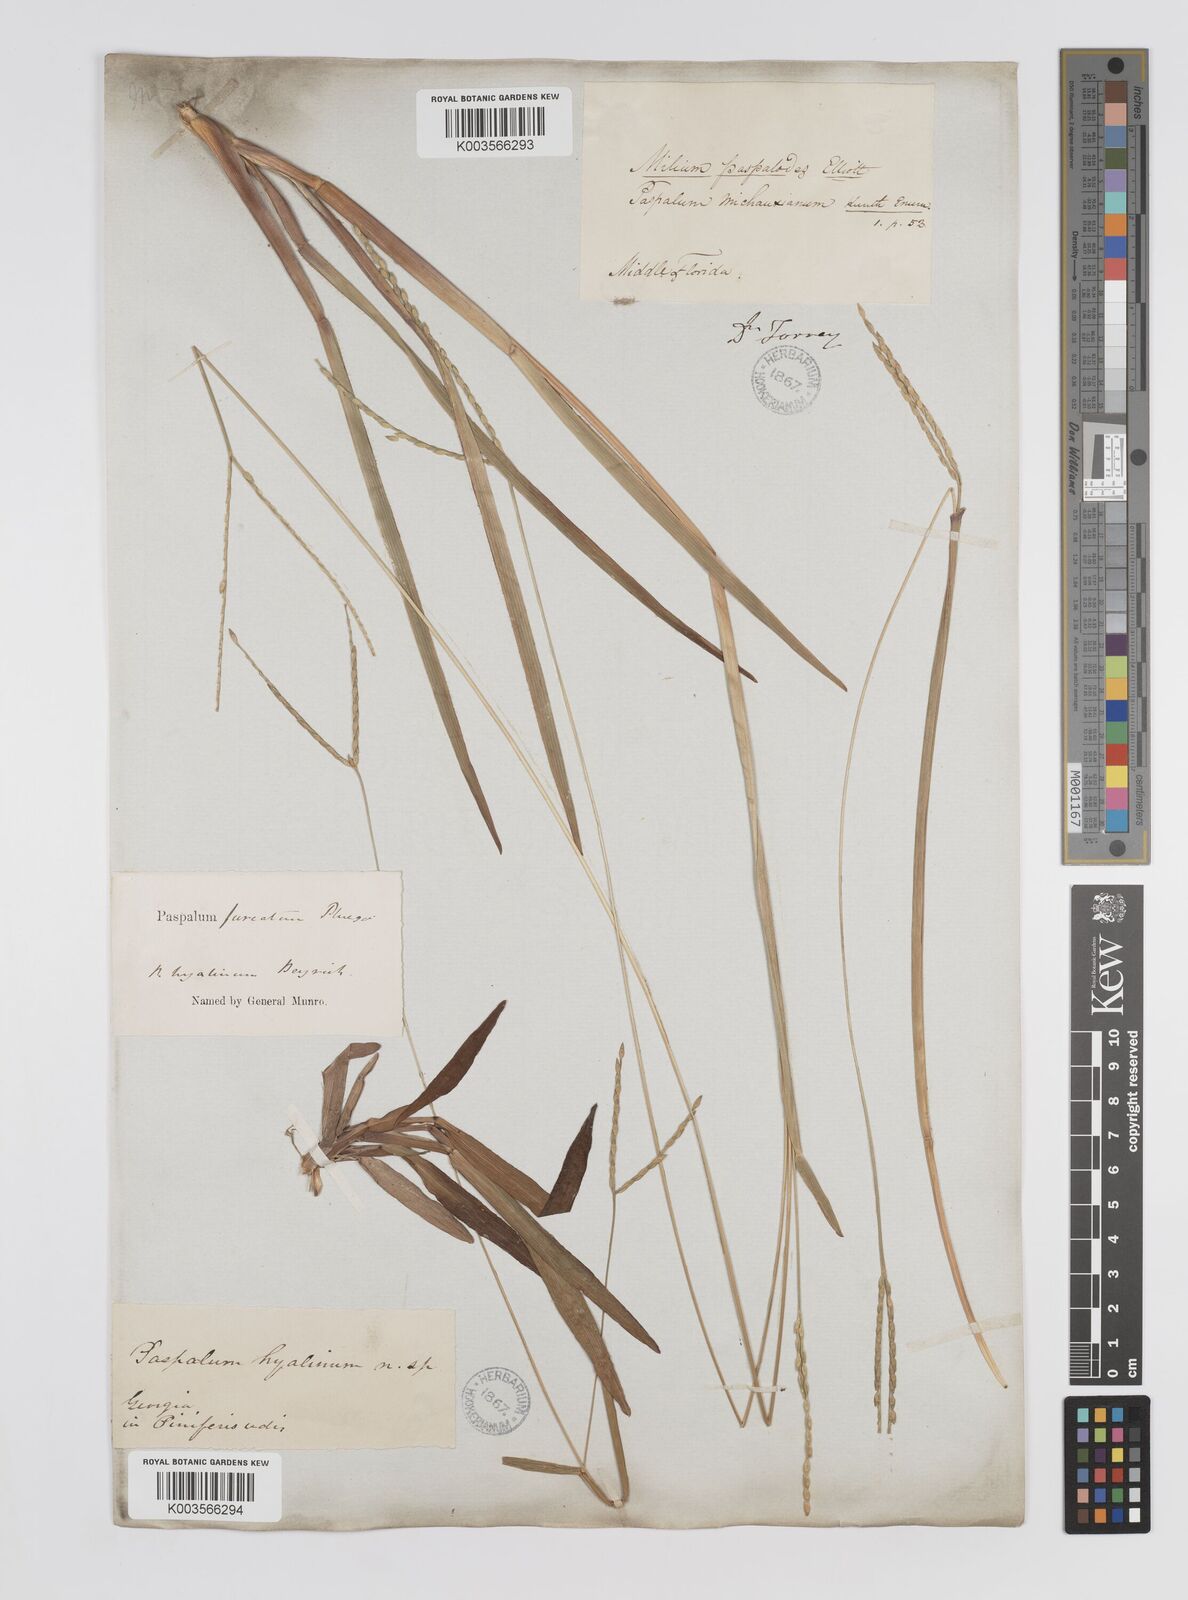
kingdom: Plantae
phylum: Tracheophyta
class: Liliopsida
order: Poales
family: Poaceae
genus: Axonopus
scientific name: Axonopus furcatus
